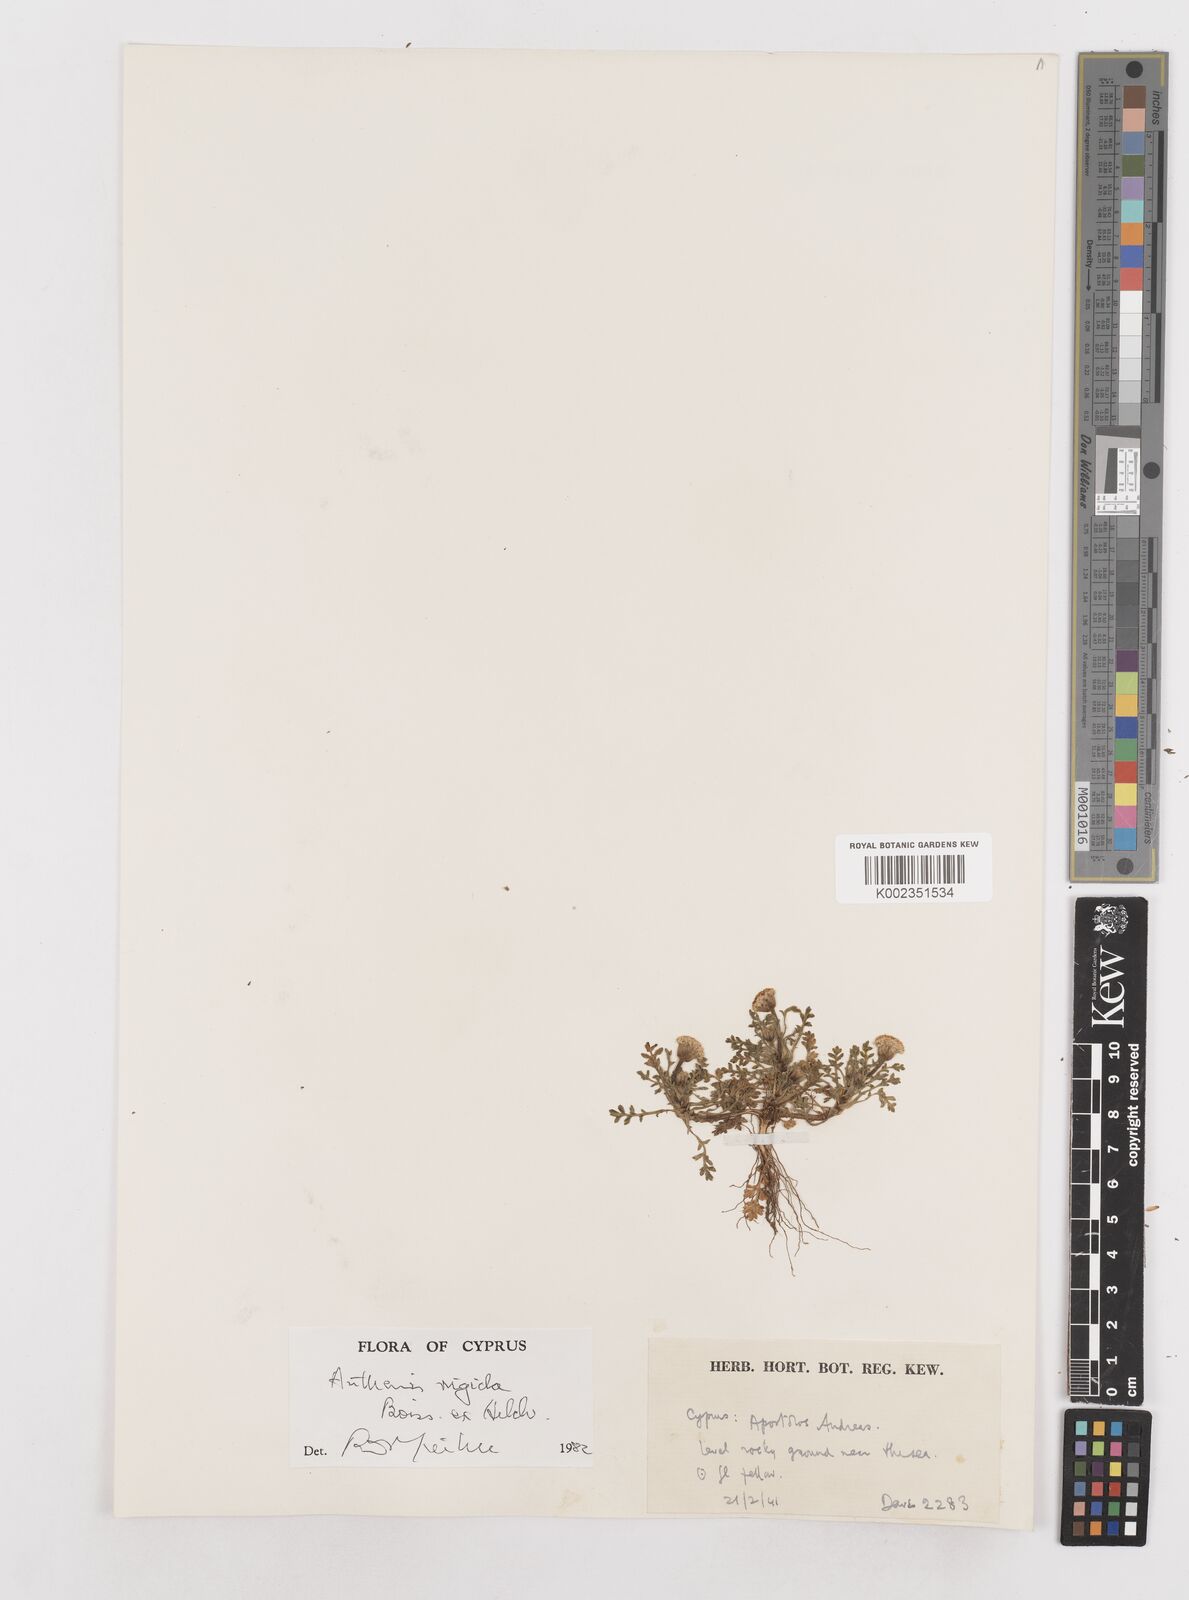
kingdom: Plantae
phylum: Tracheophyta
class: Magnoliopsida
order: Asterales
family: Asteraceae
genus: Anthemis
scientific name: Anthemis rigida
